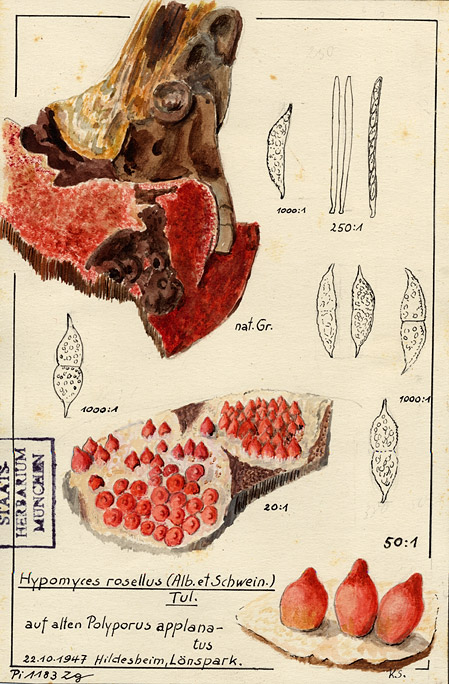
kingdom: Fungi
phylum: Basidiomycota
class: Agaricomycetes
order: Polyporales
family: Polyporaceae
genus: Ganoderma
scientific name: Ganoderma applanatum
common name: Artist's bracket
